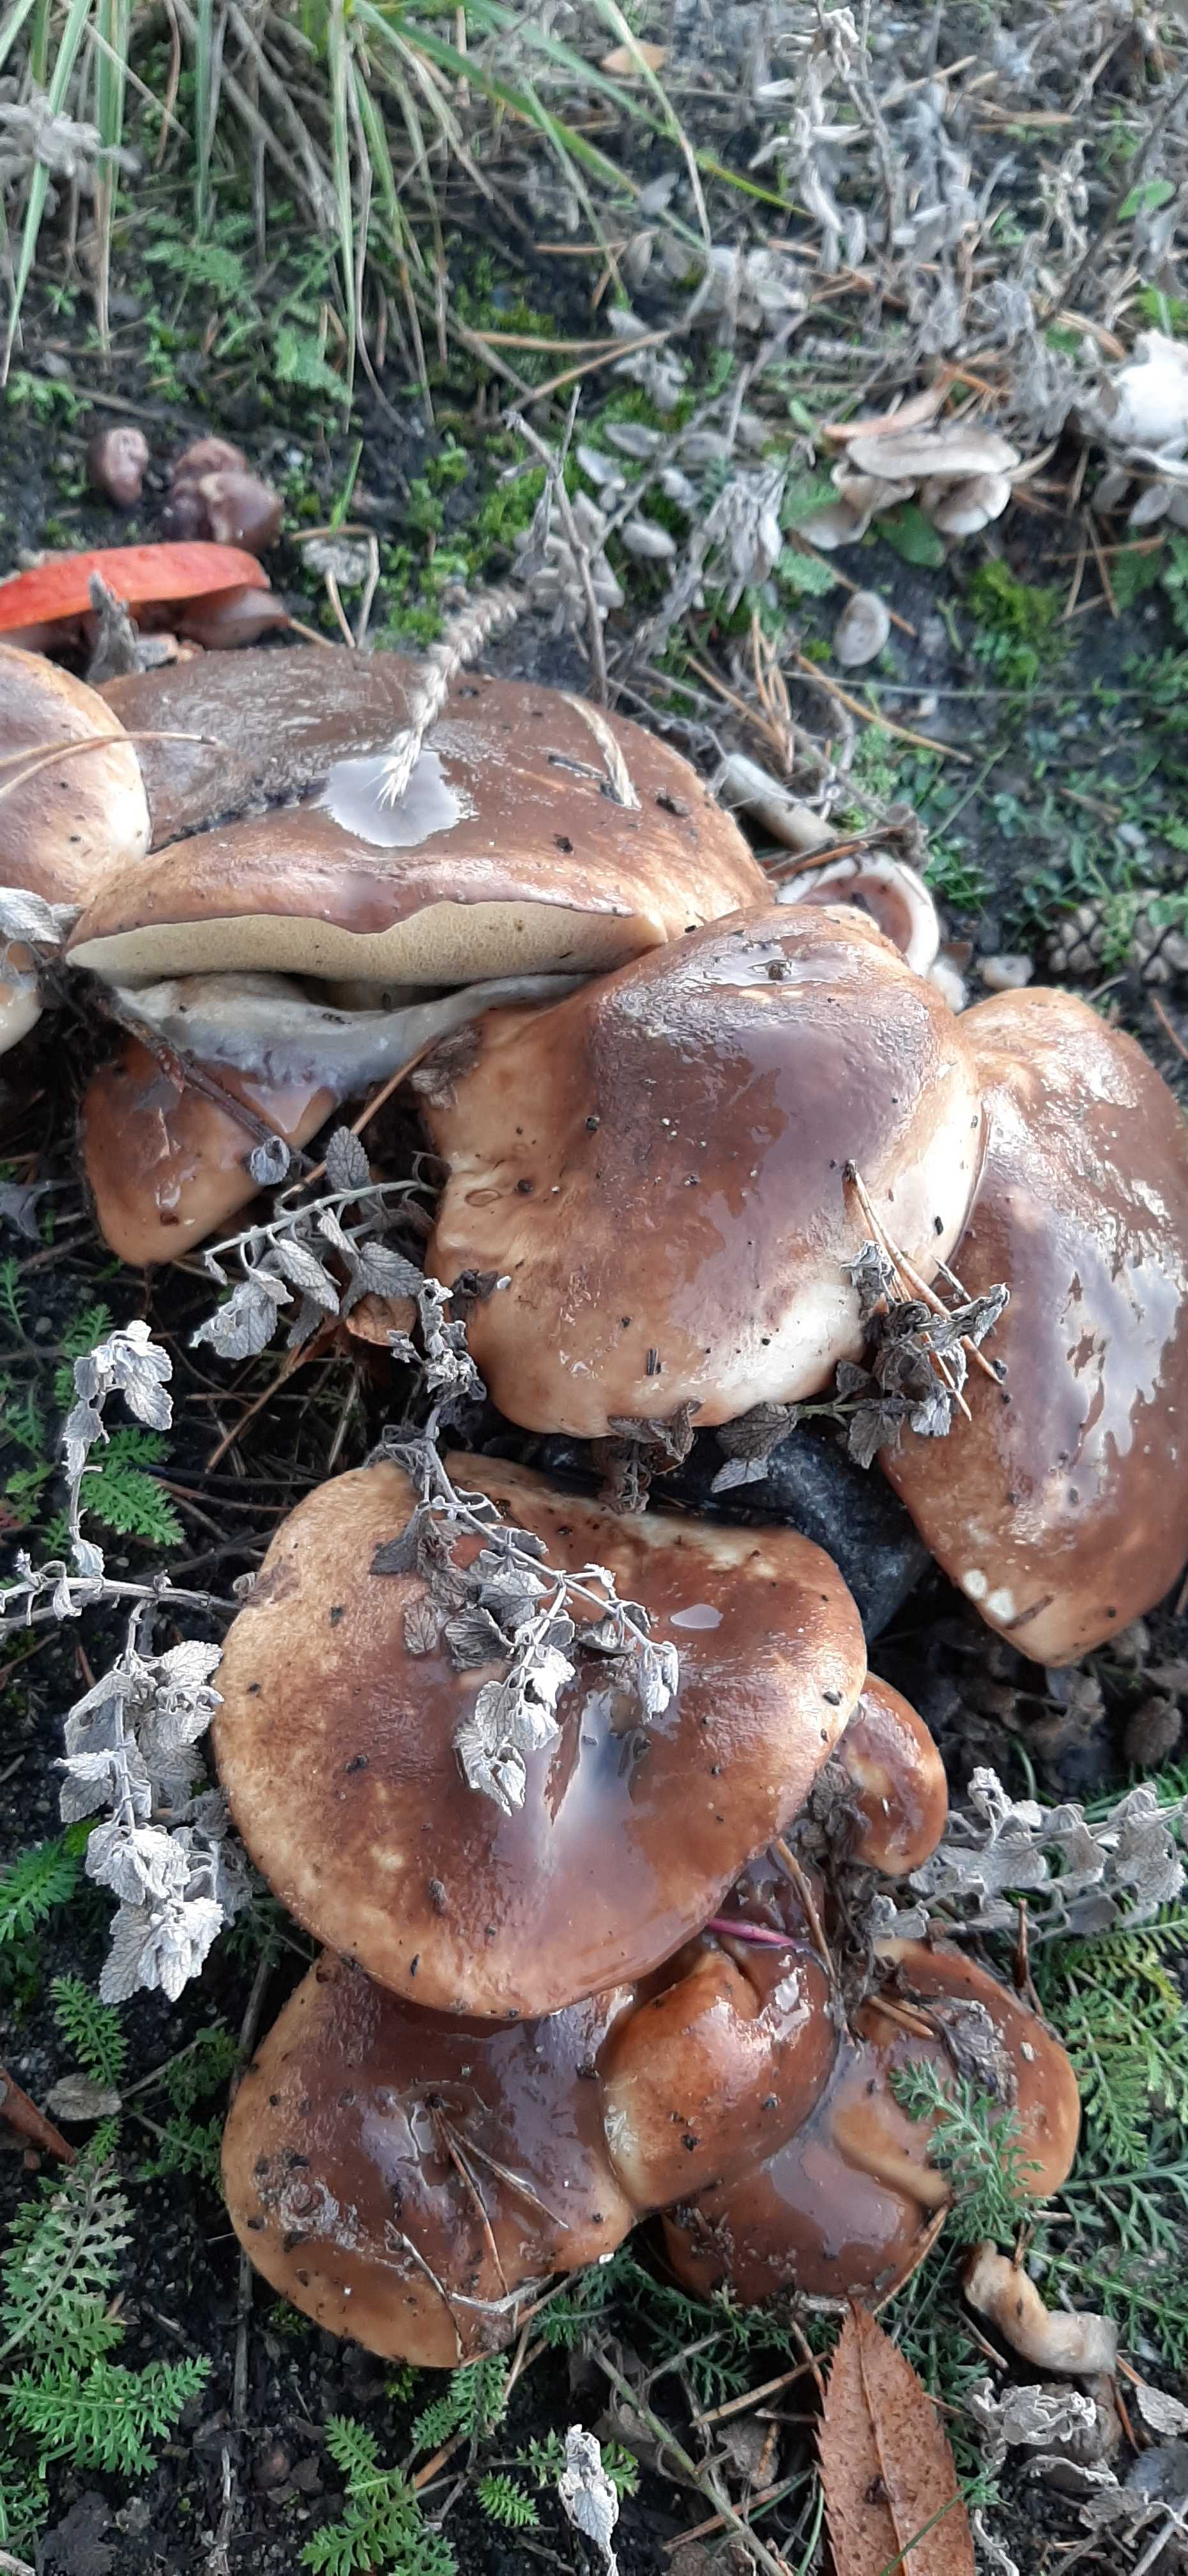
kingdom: Fungi
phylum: Basidiomycota
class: Agaricomycetes
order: Boletales
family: Suillaceae
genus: Suillus
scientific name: Suillus luteus
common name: brungul slimrørhat
